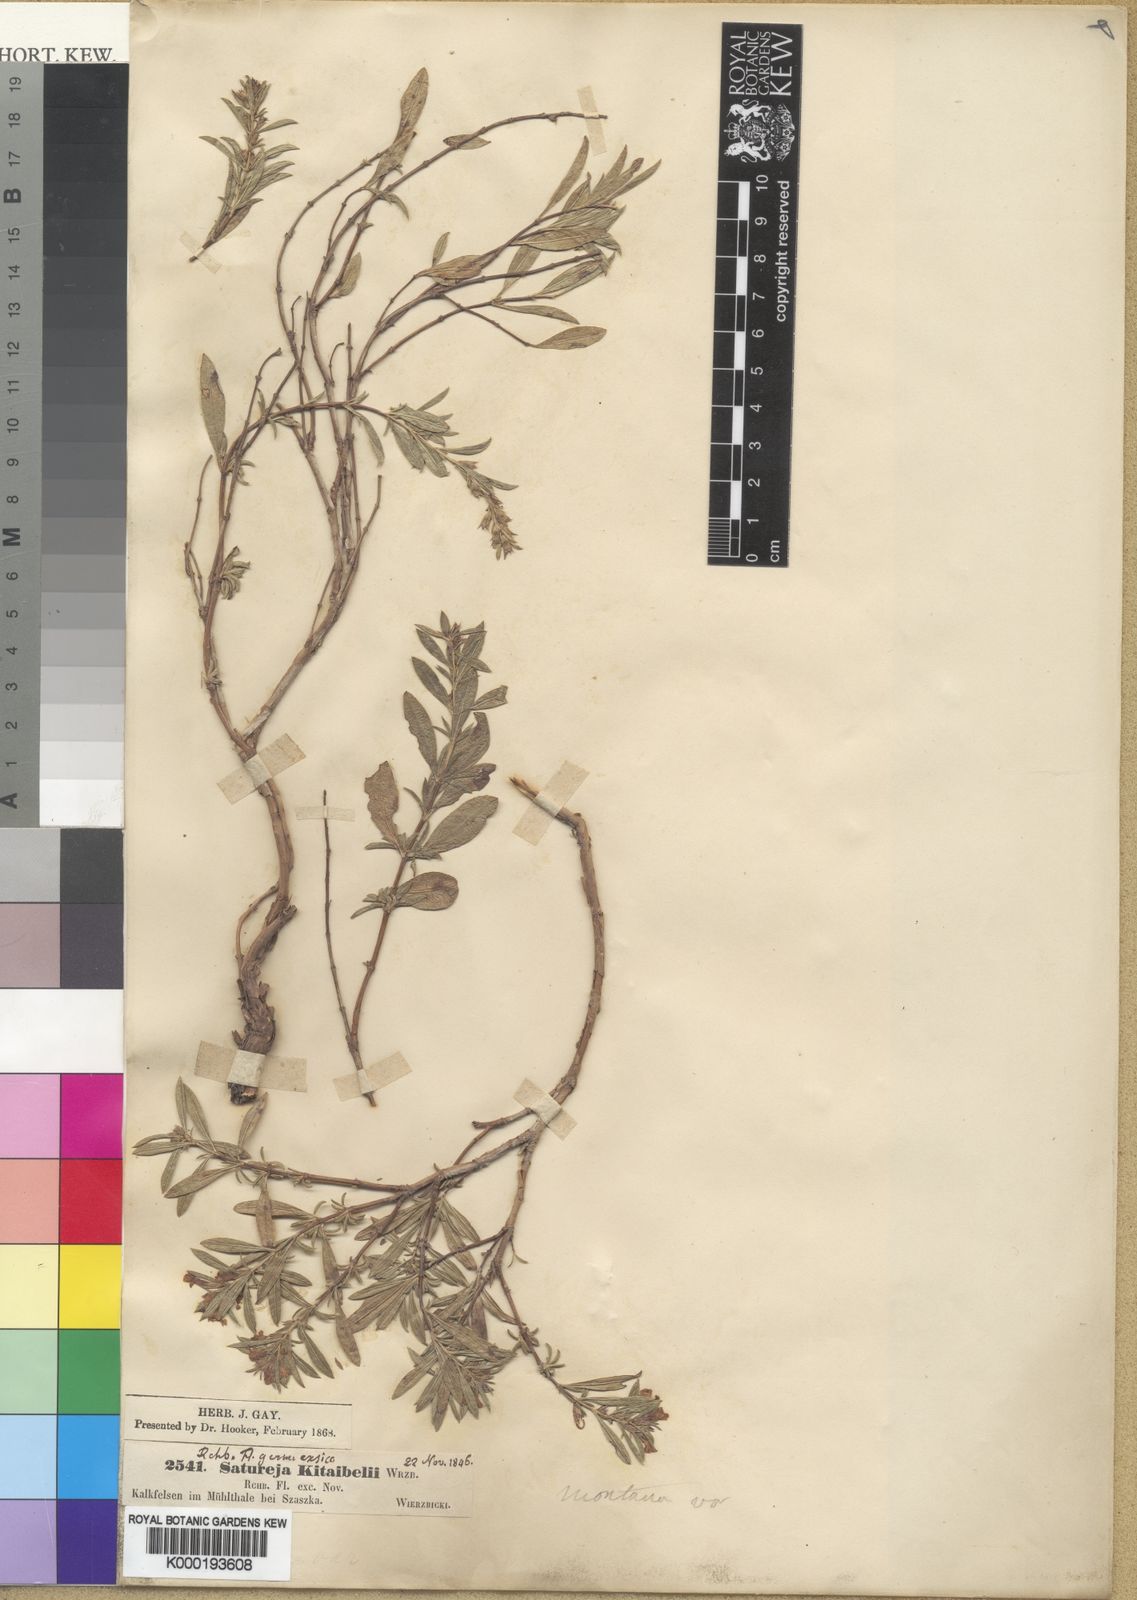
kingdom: Plantae
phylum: Tracheophyta
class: Magnoliopsida
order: Lamiales
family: Lamiaceae
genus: Satureja
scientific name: Satureja montana
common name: Winter savory
